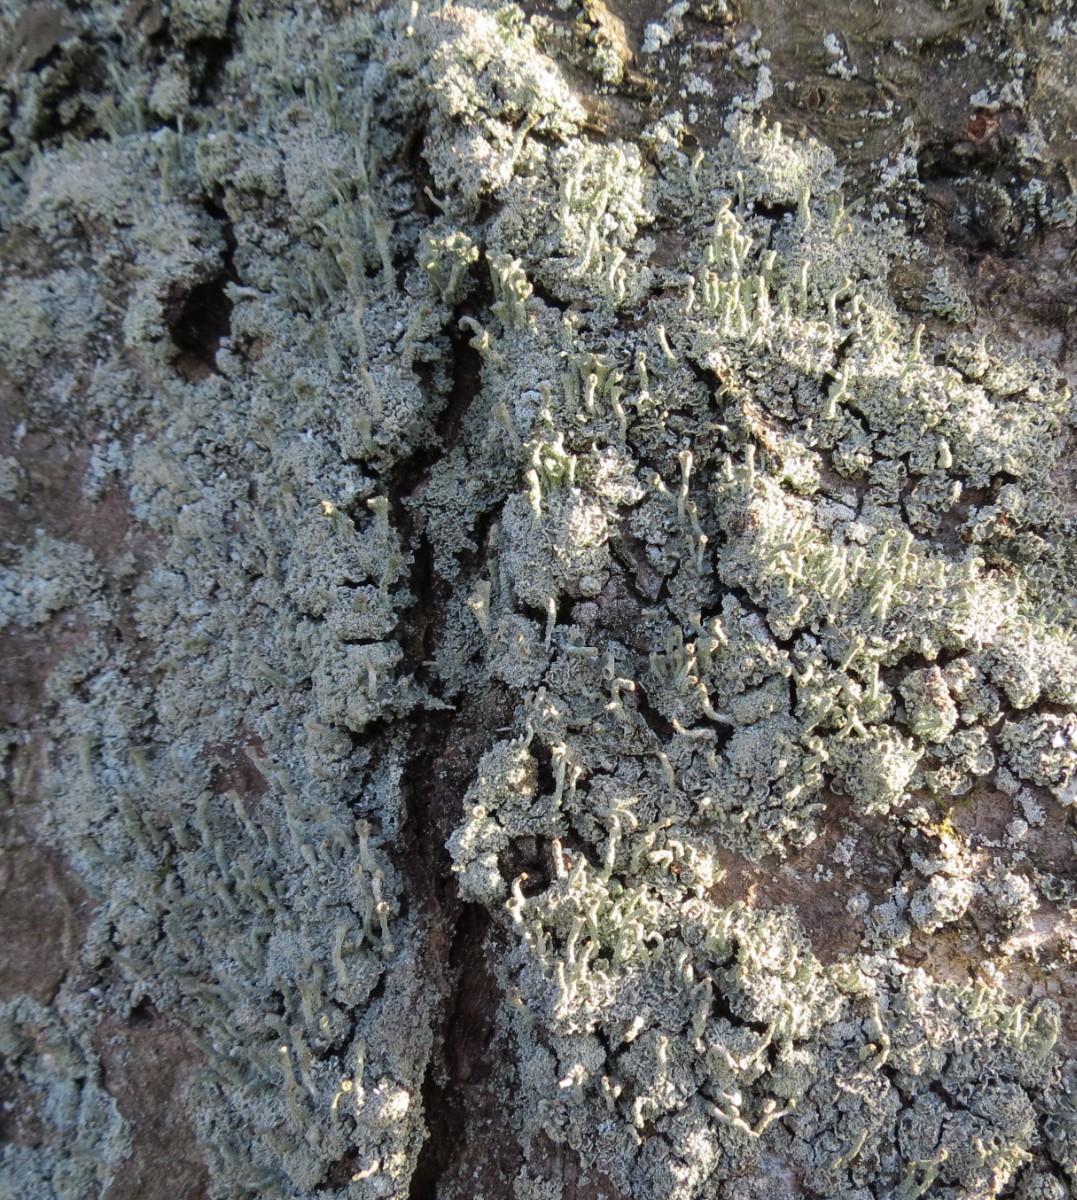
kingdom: Fungi
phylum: Ascomycota
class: Lecanoromycetes
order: Lecanorales
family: Cladoniaceae
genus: Cladonia
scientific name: Cladonia ochrochlora
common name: stød-bægerlav
